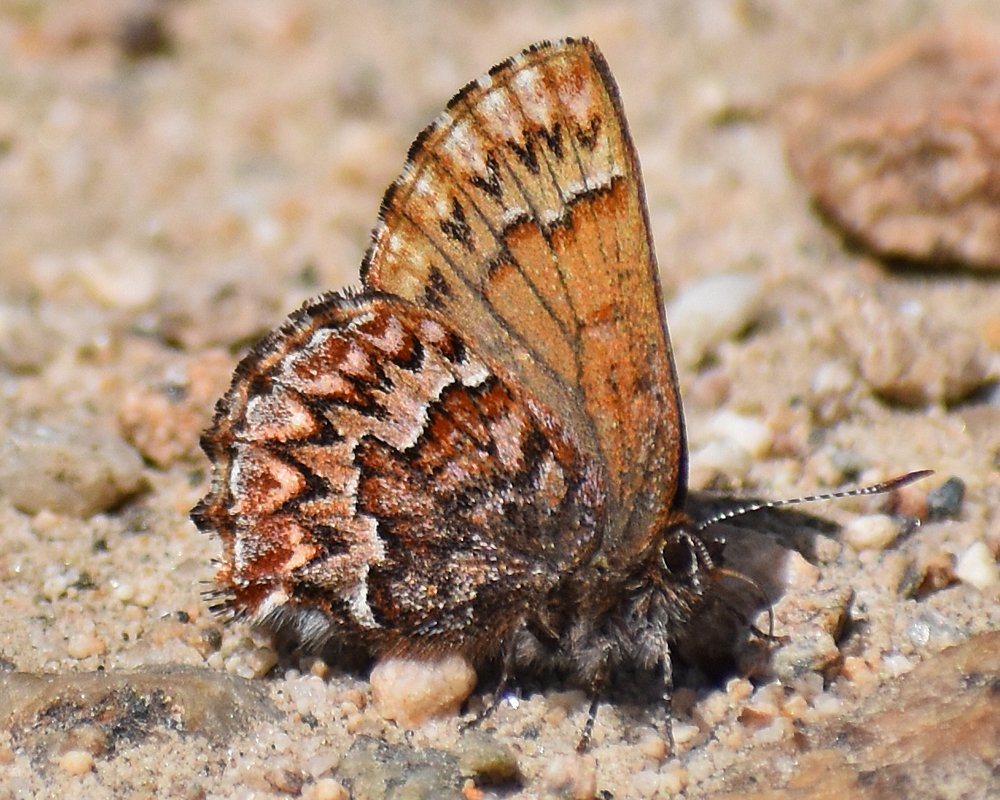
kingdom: Animalia
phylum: Arthropoda
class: Insecta
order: Lepidoptera
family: Lycaenidae
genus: Incisalia
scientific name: Incisalia eryphon
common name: Western Pine Elfin
